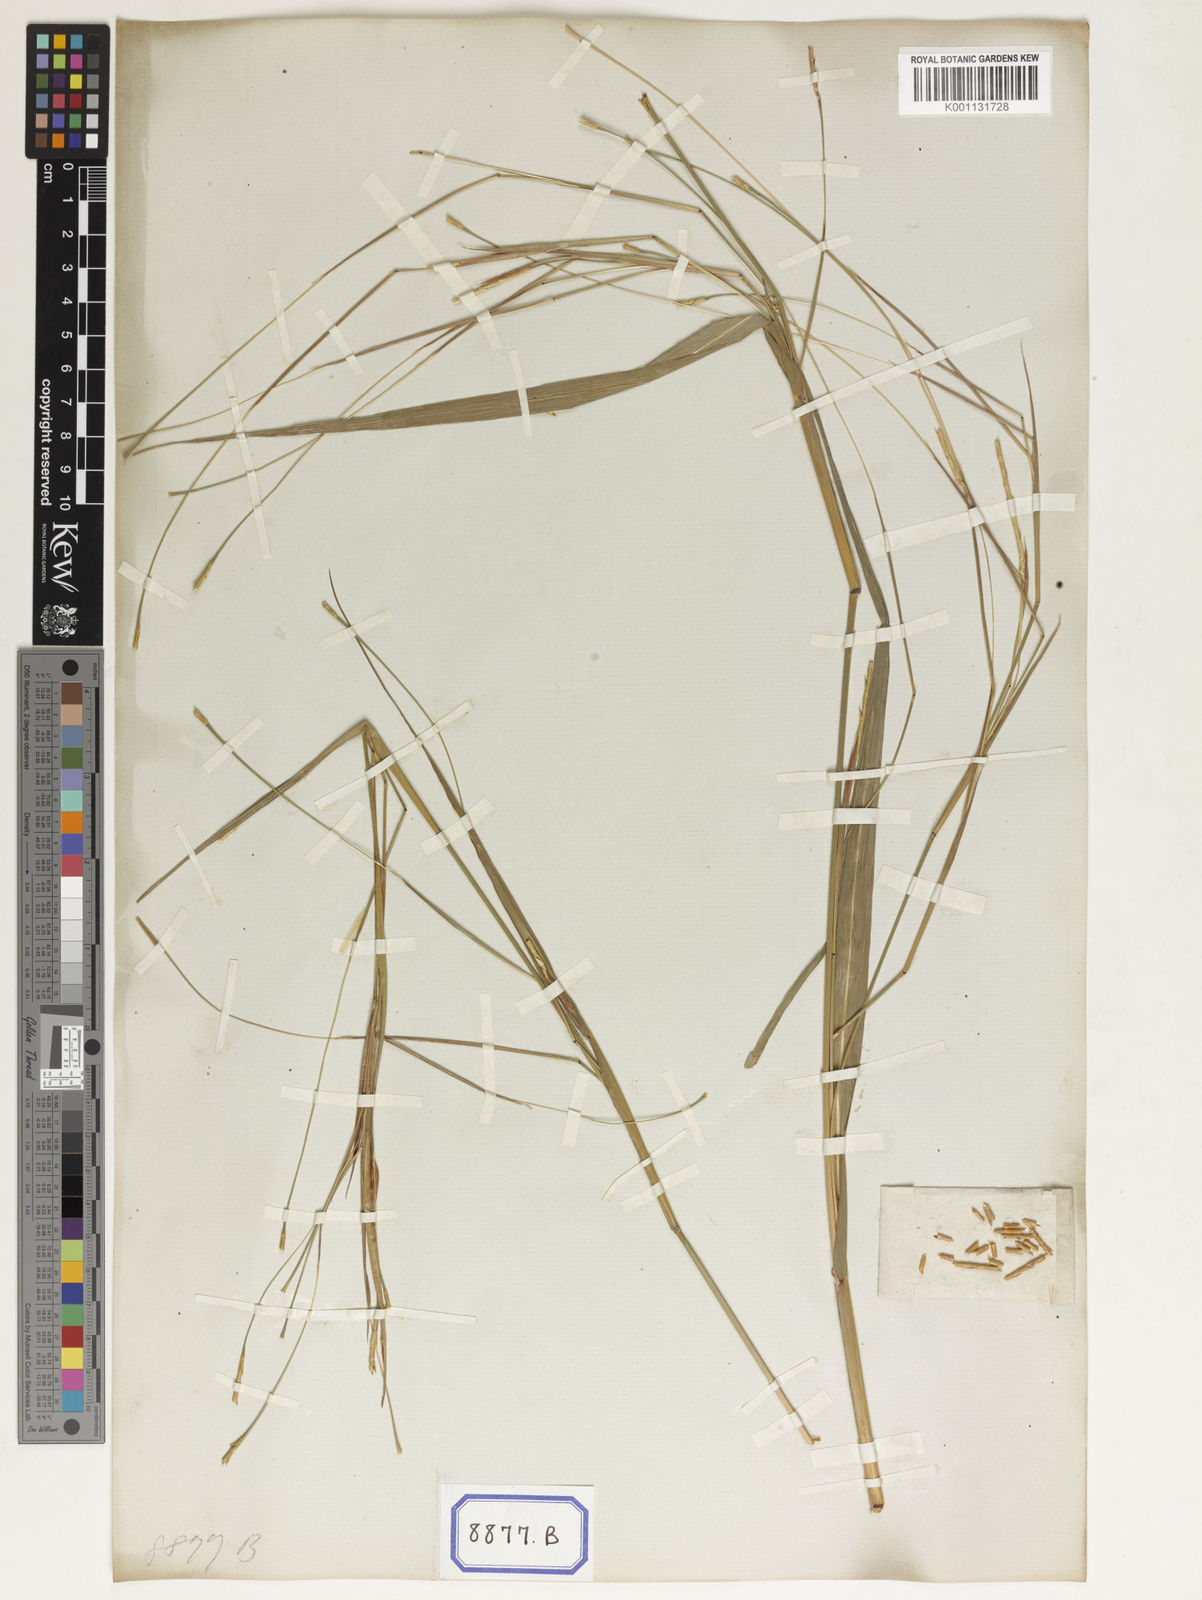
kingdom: Plantae
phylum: Tracheophyta
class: Liliopsida
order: Poales
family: Poaceae
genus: Rottboellia
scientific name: Rottboellia
